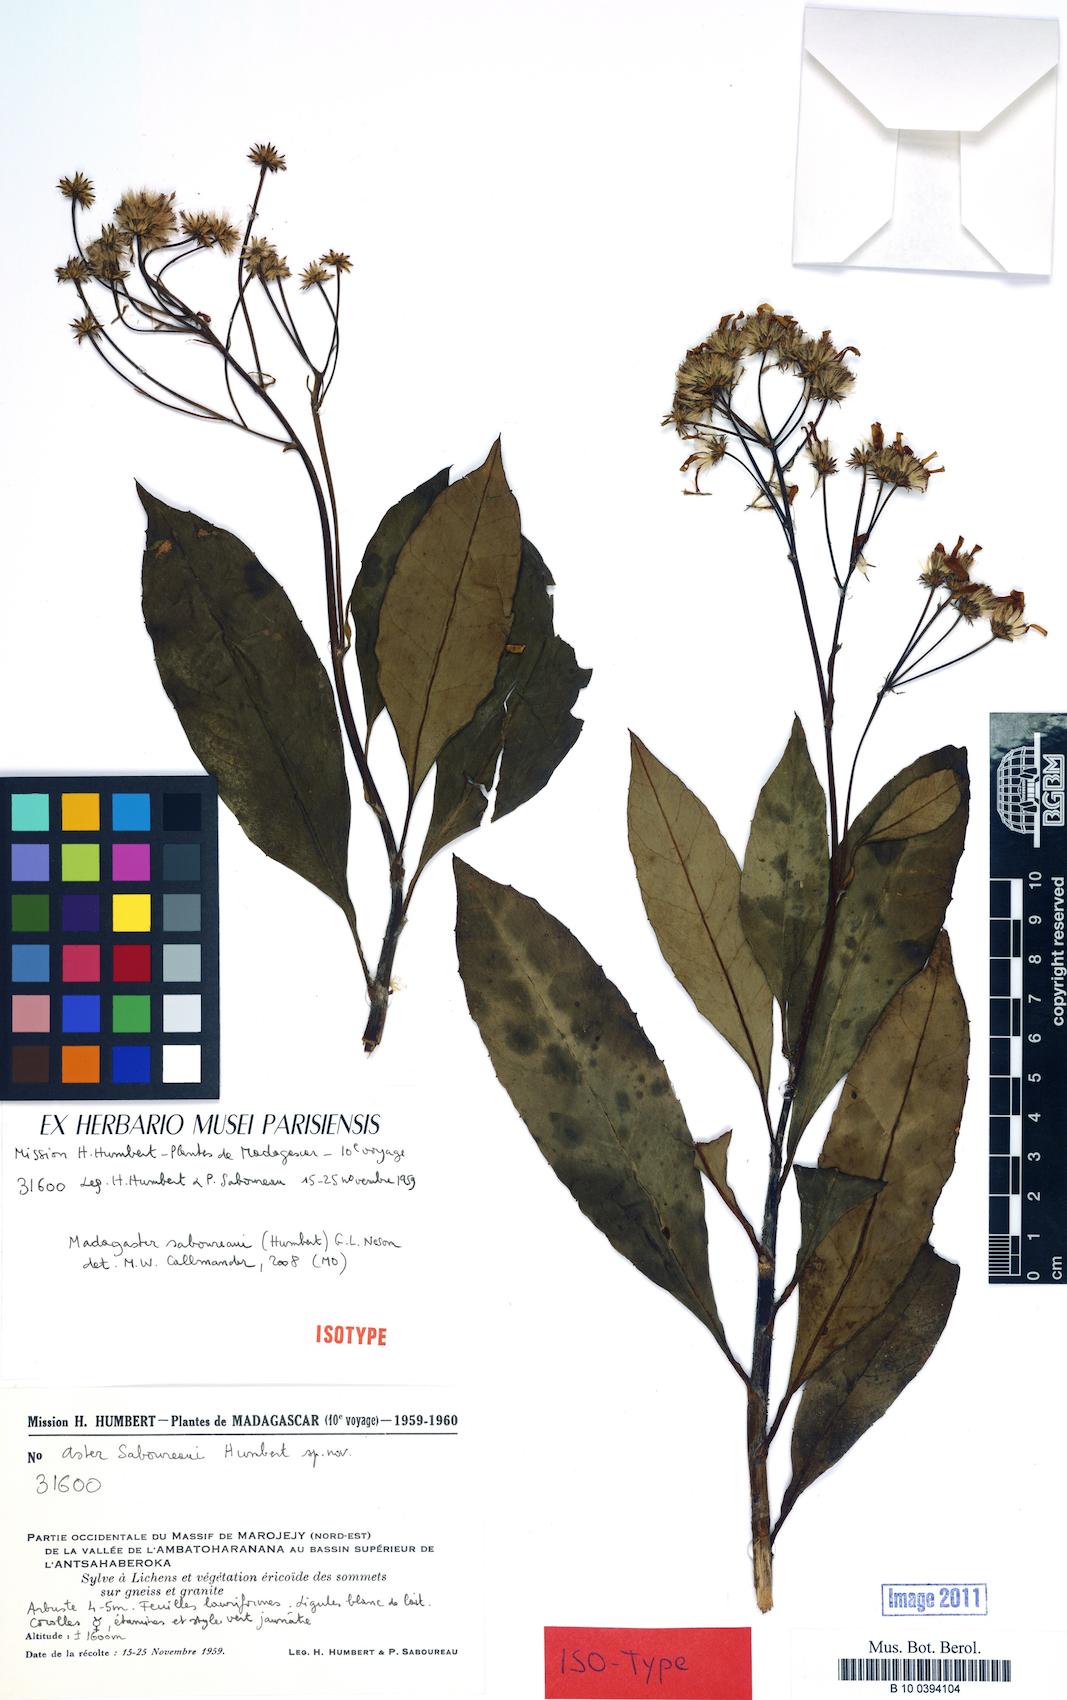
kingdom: Plantae
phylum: Tracheophyta
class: Magnoliopsida
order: Asterales
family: Asteraceae
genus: Madagaster
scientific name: Madagaster saboureaui
